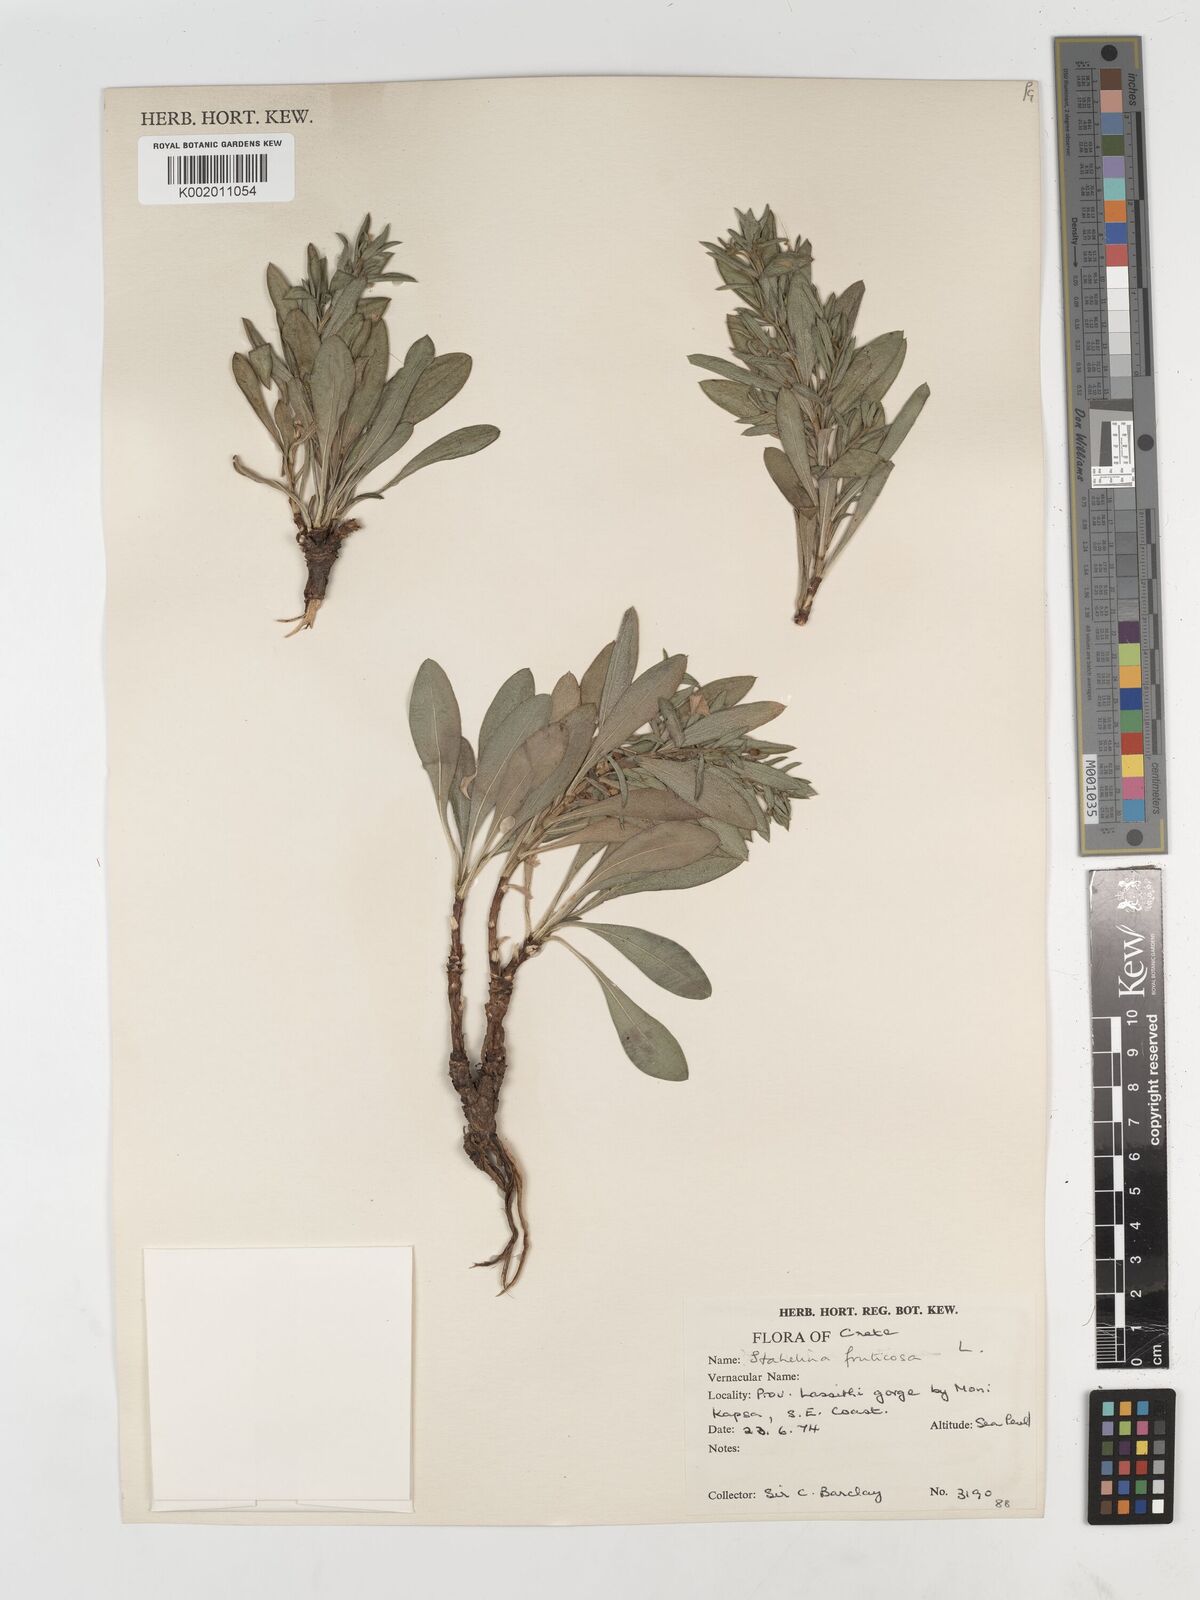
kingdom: Plantae
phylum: Tracheophyta
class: Magnoliopsida
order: Asterales
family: Asteraceae
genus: Hirtellina
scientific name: Hirtellina fruticosa
